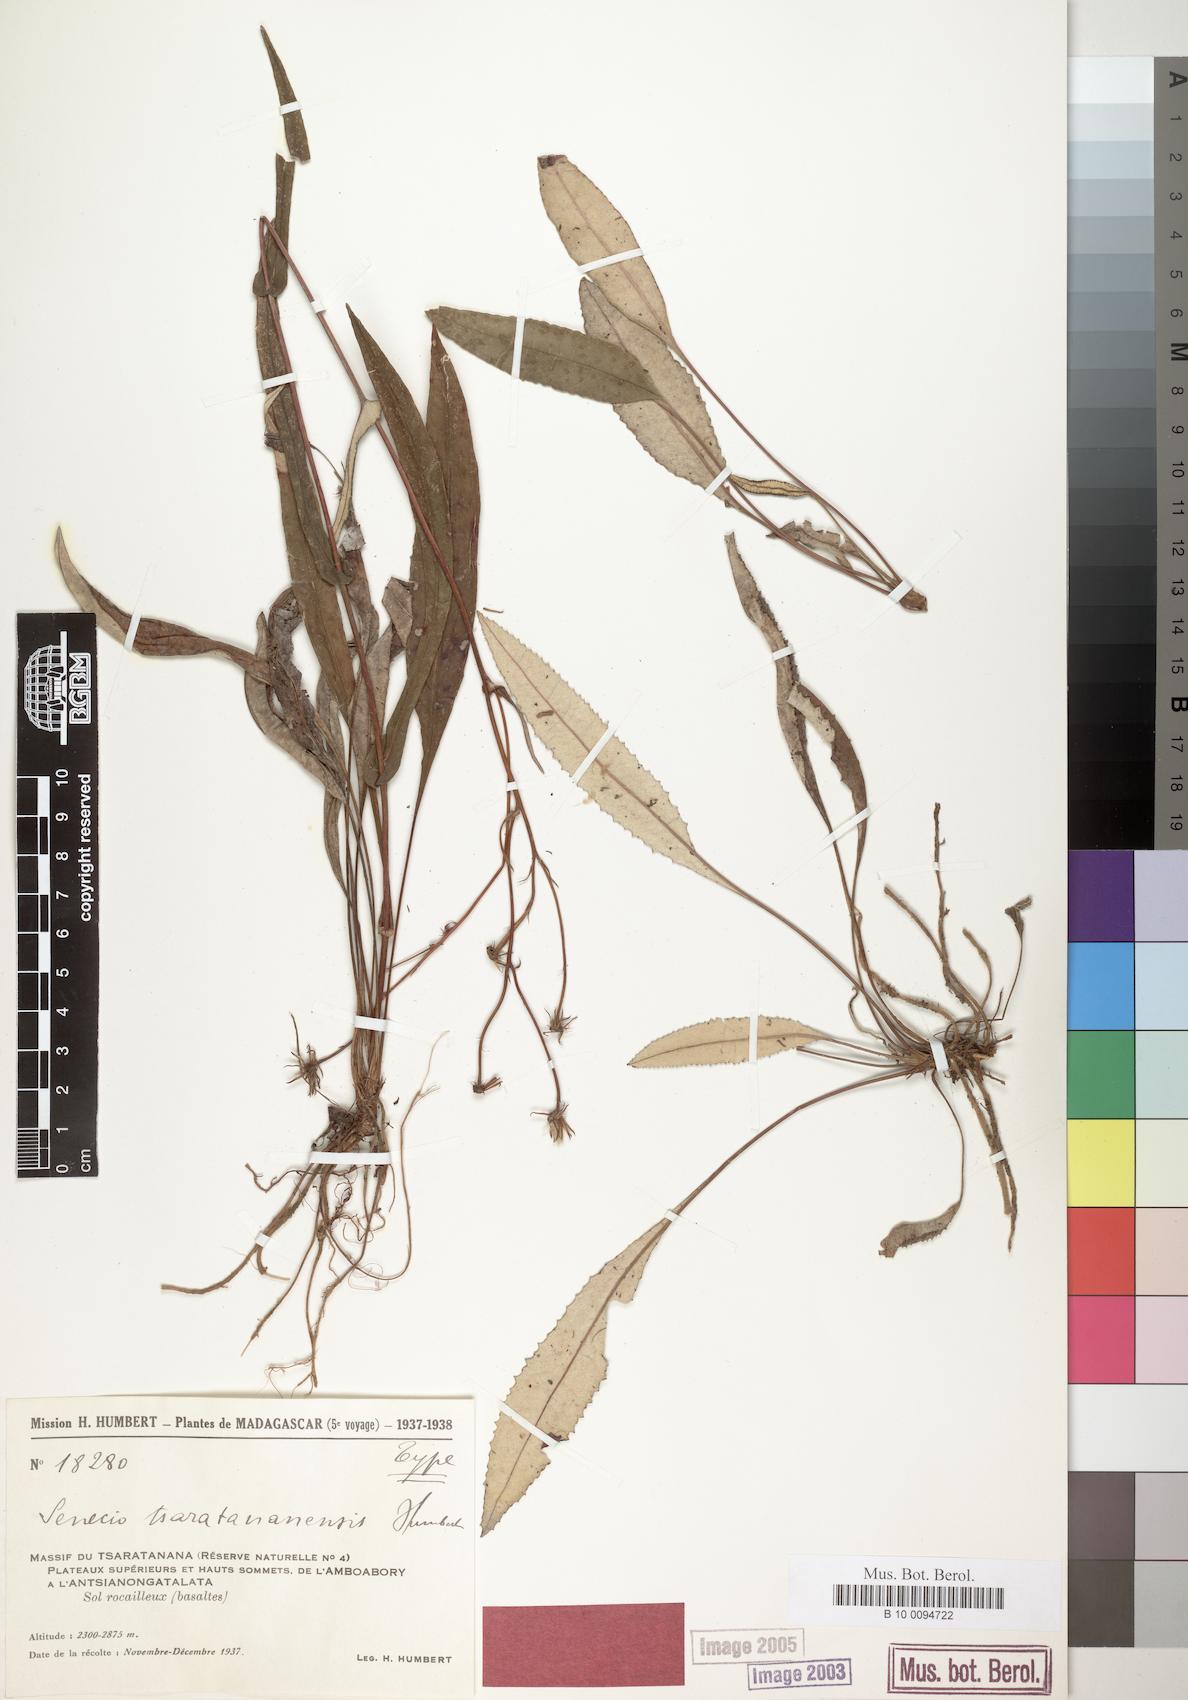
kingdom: Plantae
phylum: Tracheophyta
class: Magnoliopsida
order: Asterales
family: Asteraceae
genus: Senecio
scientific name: Senecio tsaratananensis
